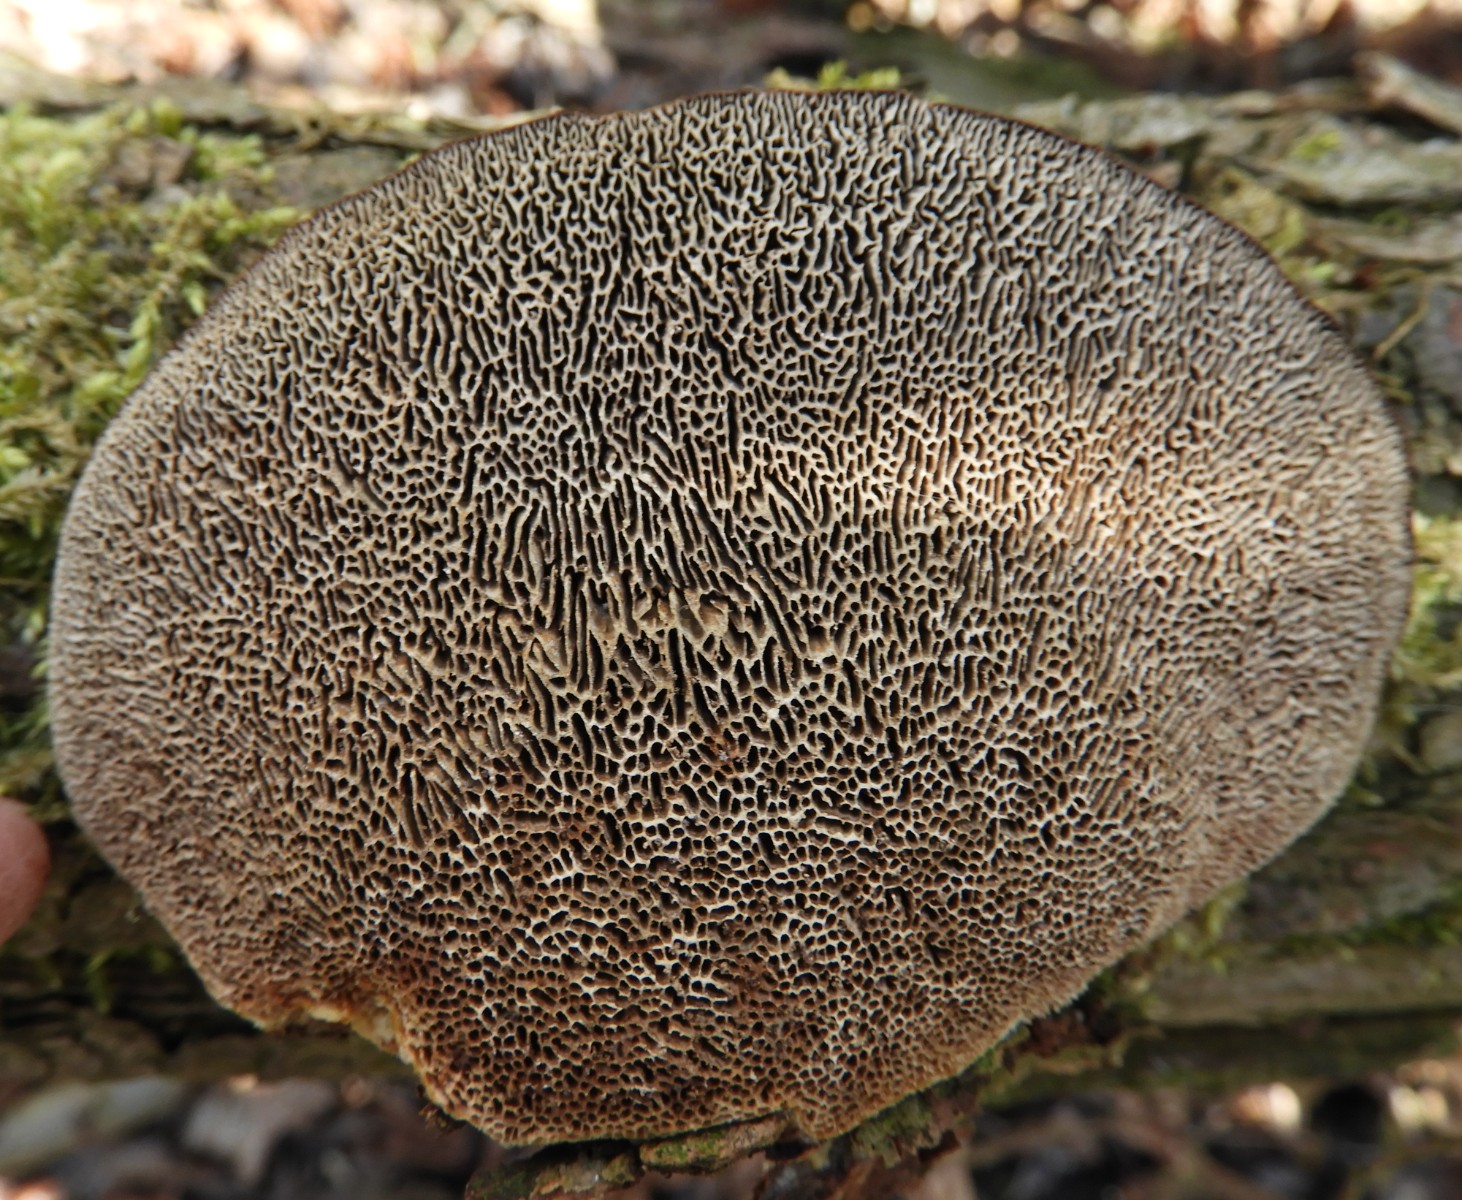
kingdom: Fungi
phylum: Basidiomycota
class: Agaricomycetes
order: Polyporales
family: Polyporaceae
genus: Daedaleopsis
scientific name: Daedaleopsis confragosa
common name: rødmende læderporesvamp
